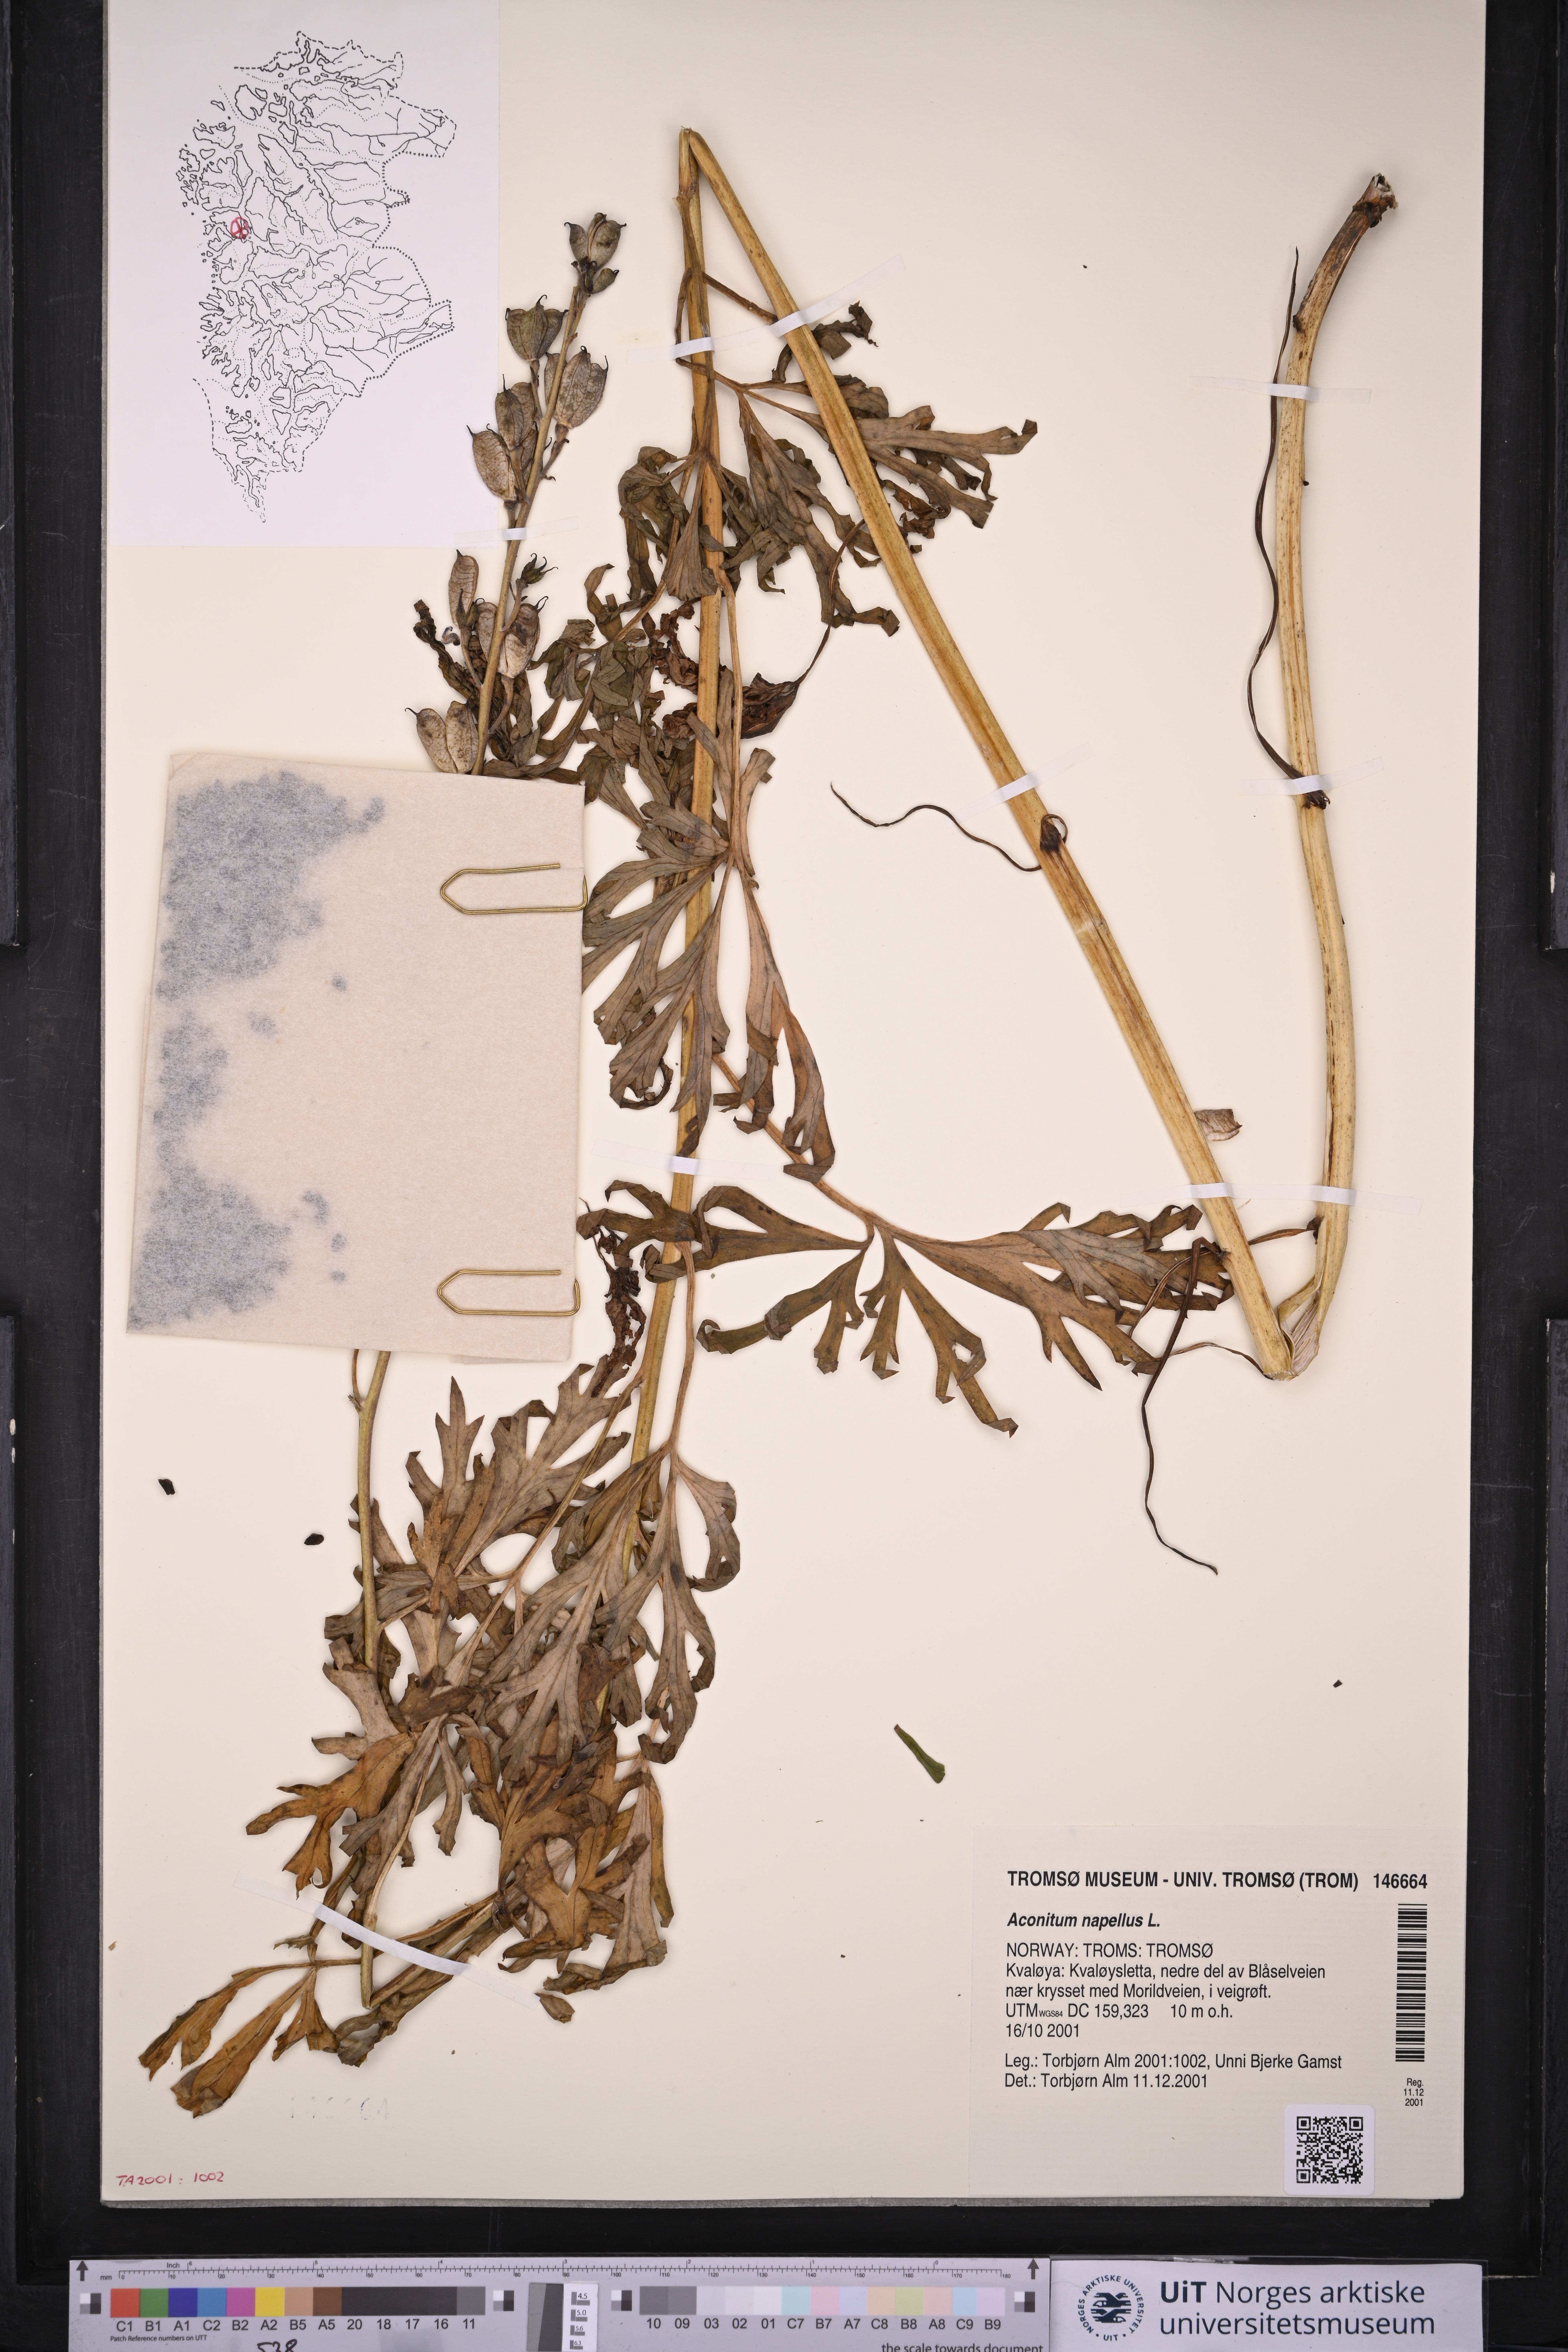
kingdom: Plantae
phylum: Tracheophyta
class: Magnoliopsida
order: Ranunculales
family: Ranunculaceae
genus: Aconitum
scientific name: Aconitum napellus
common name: Garden monkshood
